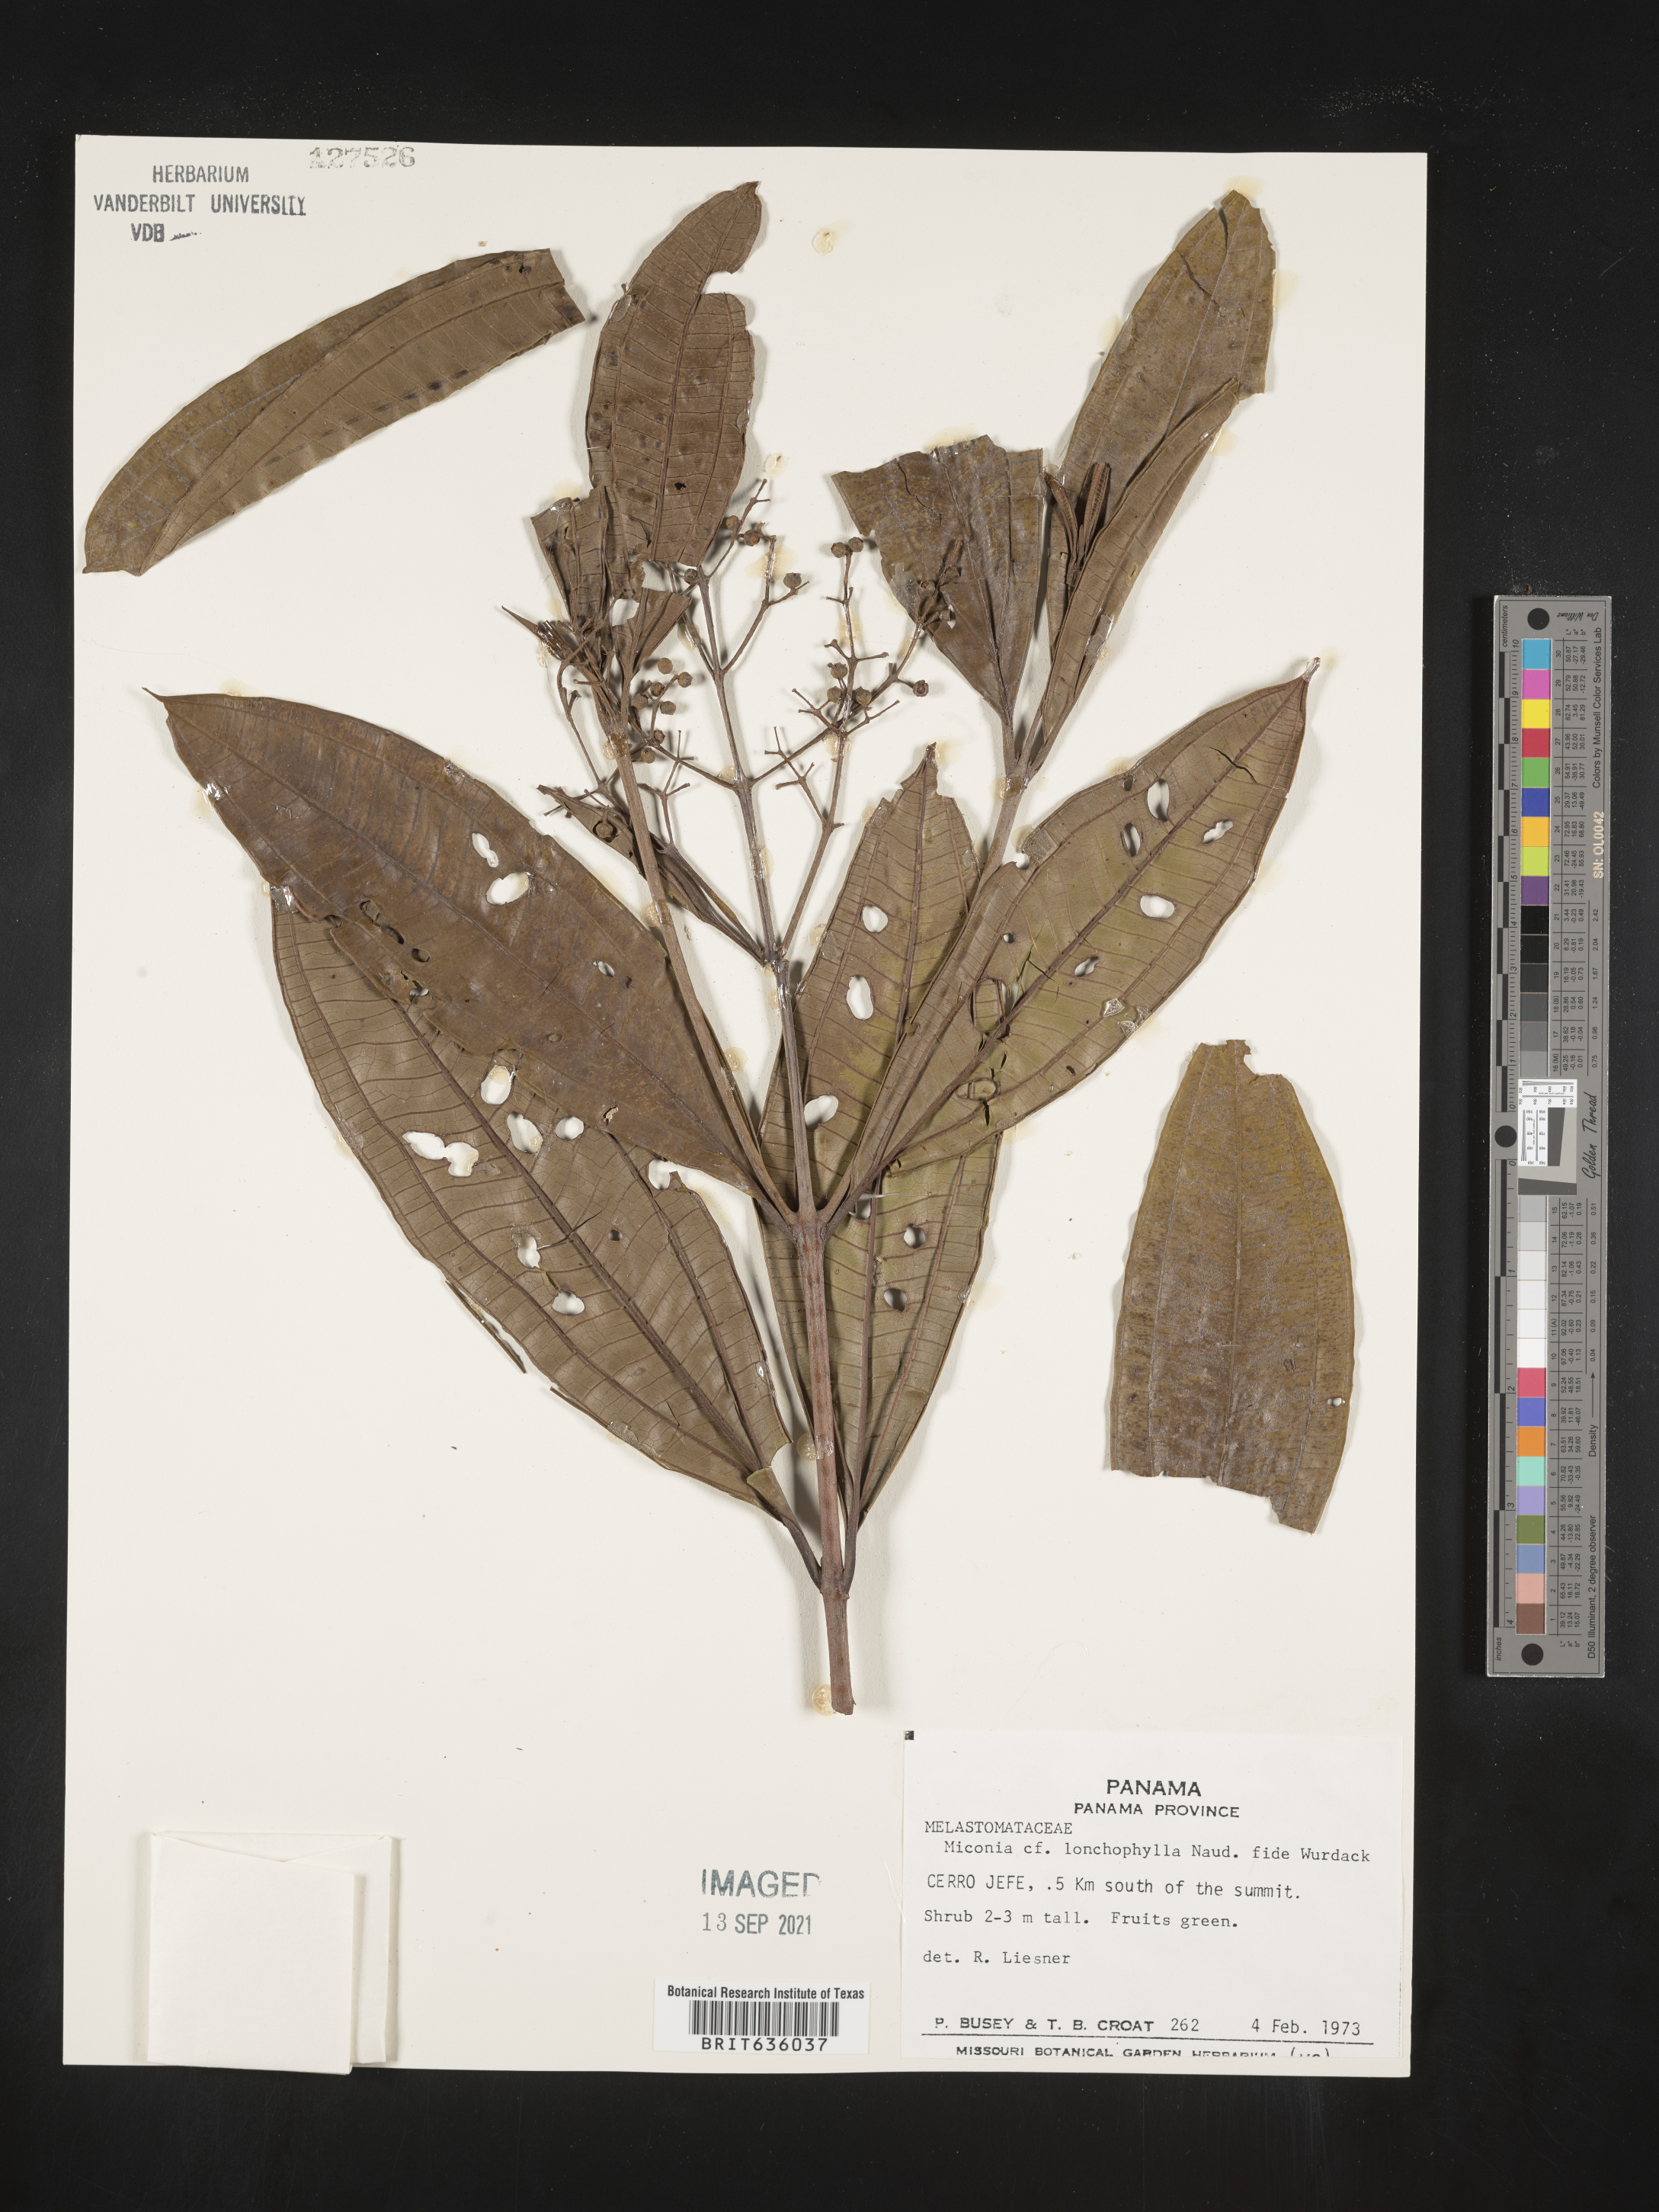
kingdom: Plantae
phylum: Tracheophyta
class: Magnoliopsida
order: Myrtales
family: Melastomataceae
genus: Miconia
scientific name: Miconia
